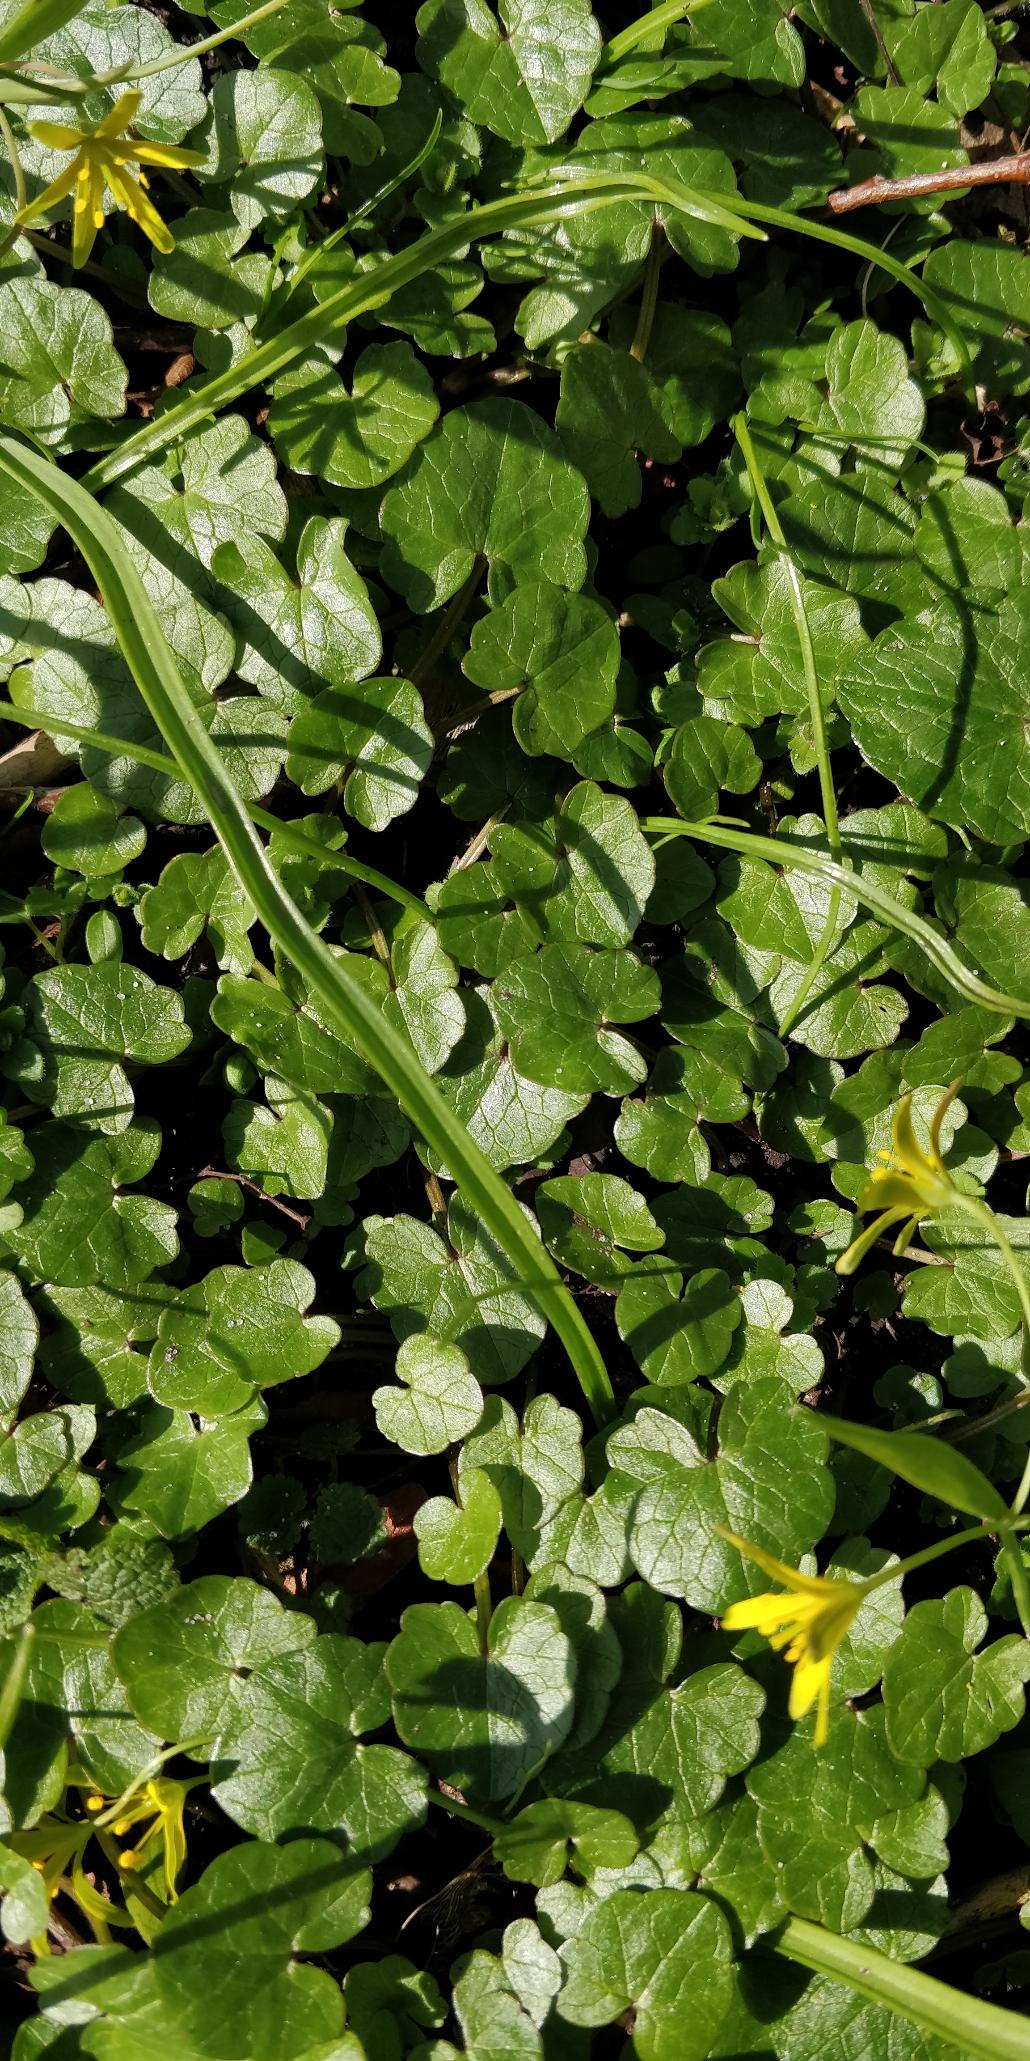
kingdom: Plantae
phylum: Tracheophyta
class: Magnoliopsida
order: Ranunculales
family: Ranunculaceae
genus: Ficaria
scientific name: Ficaria verna
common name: Vorterod
